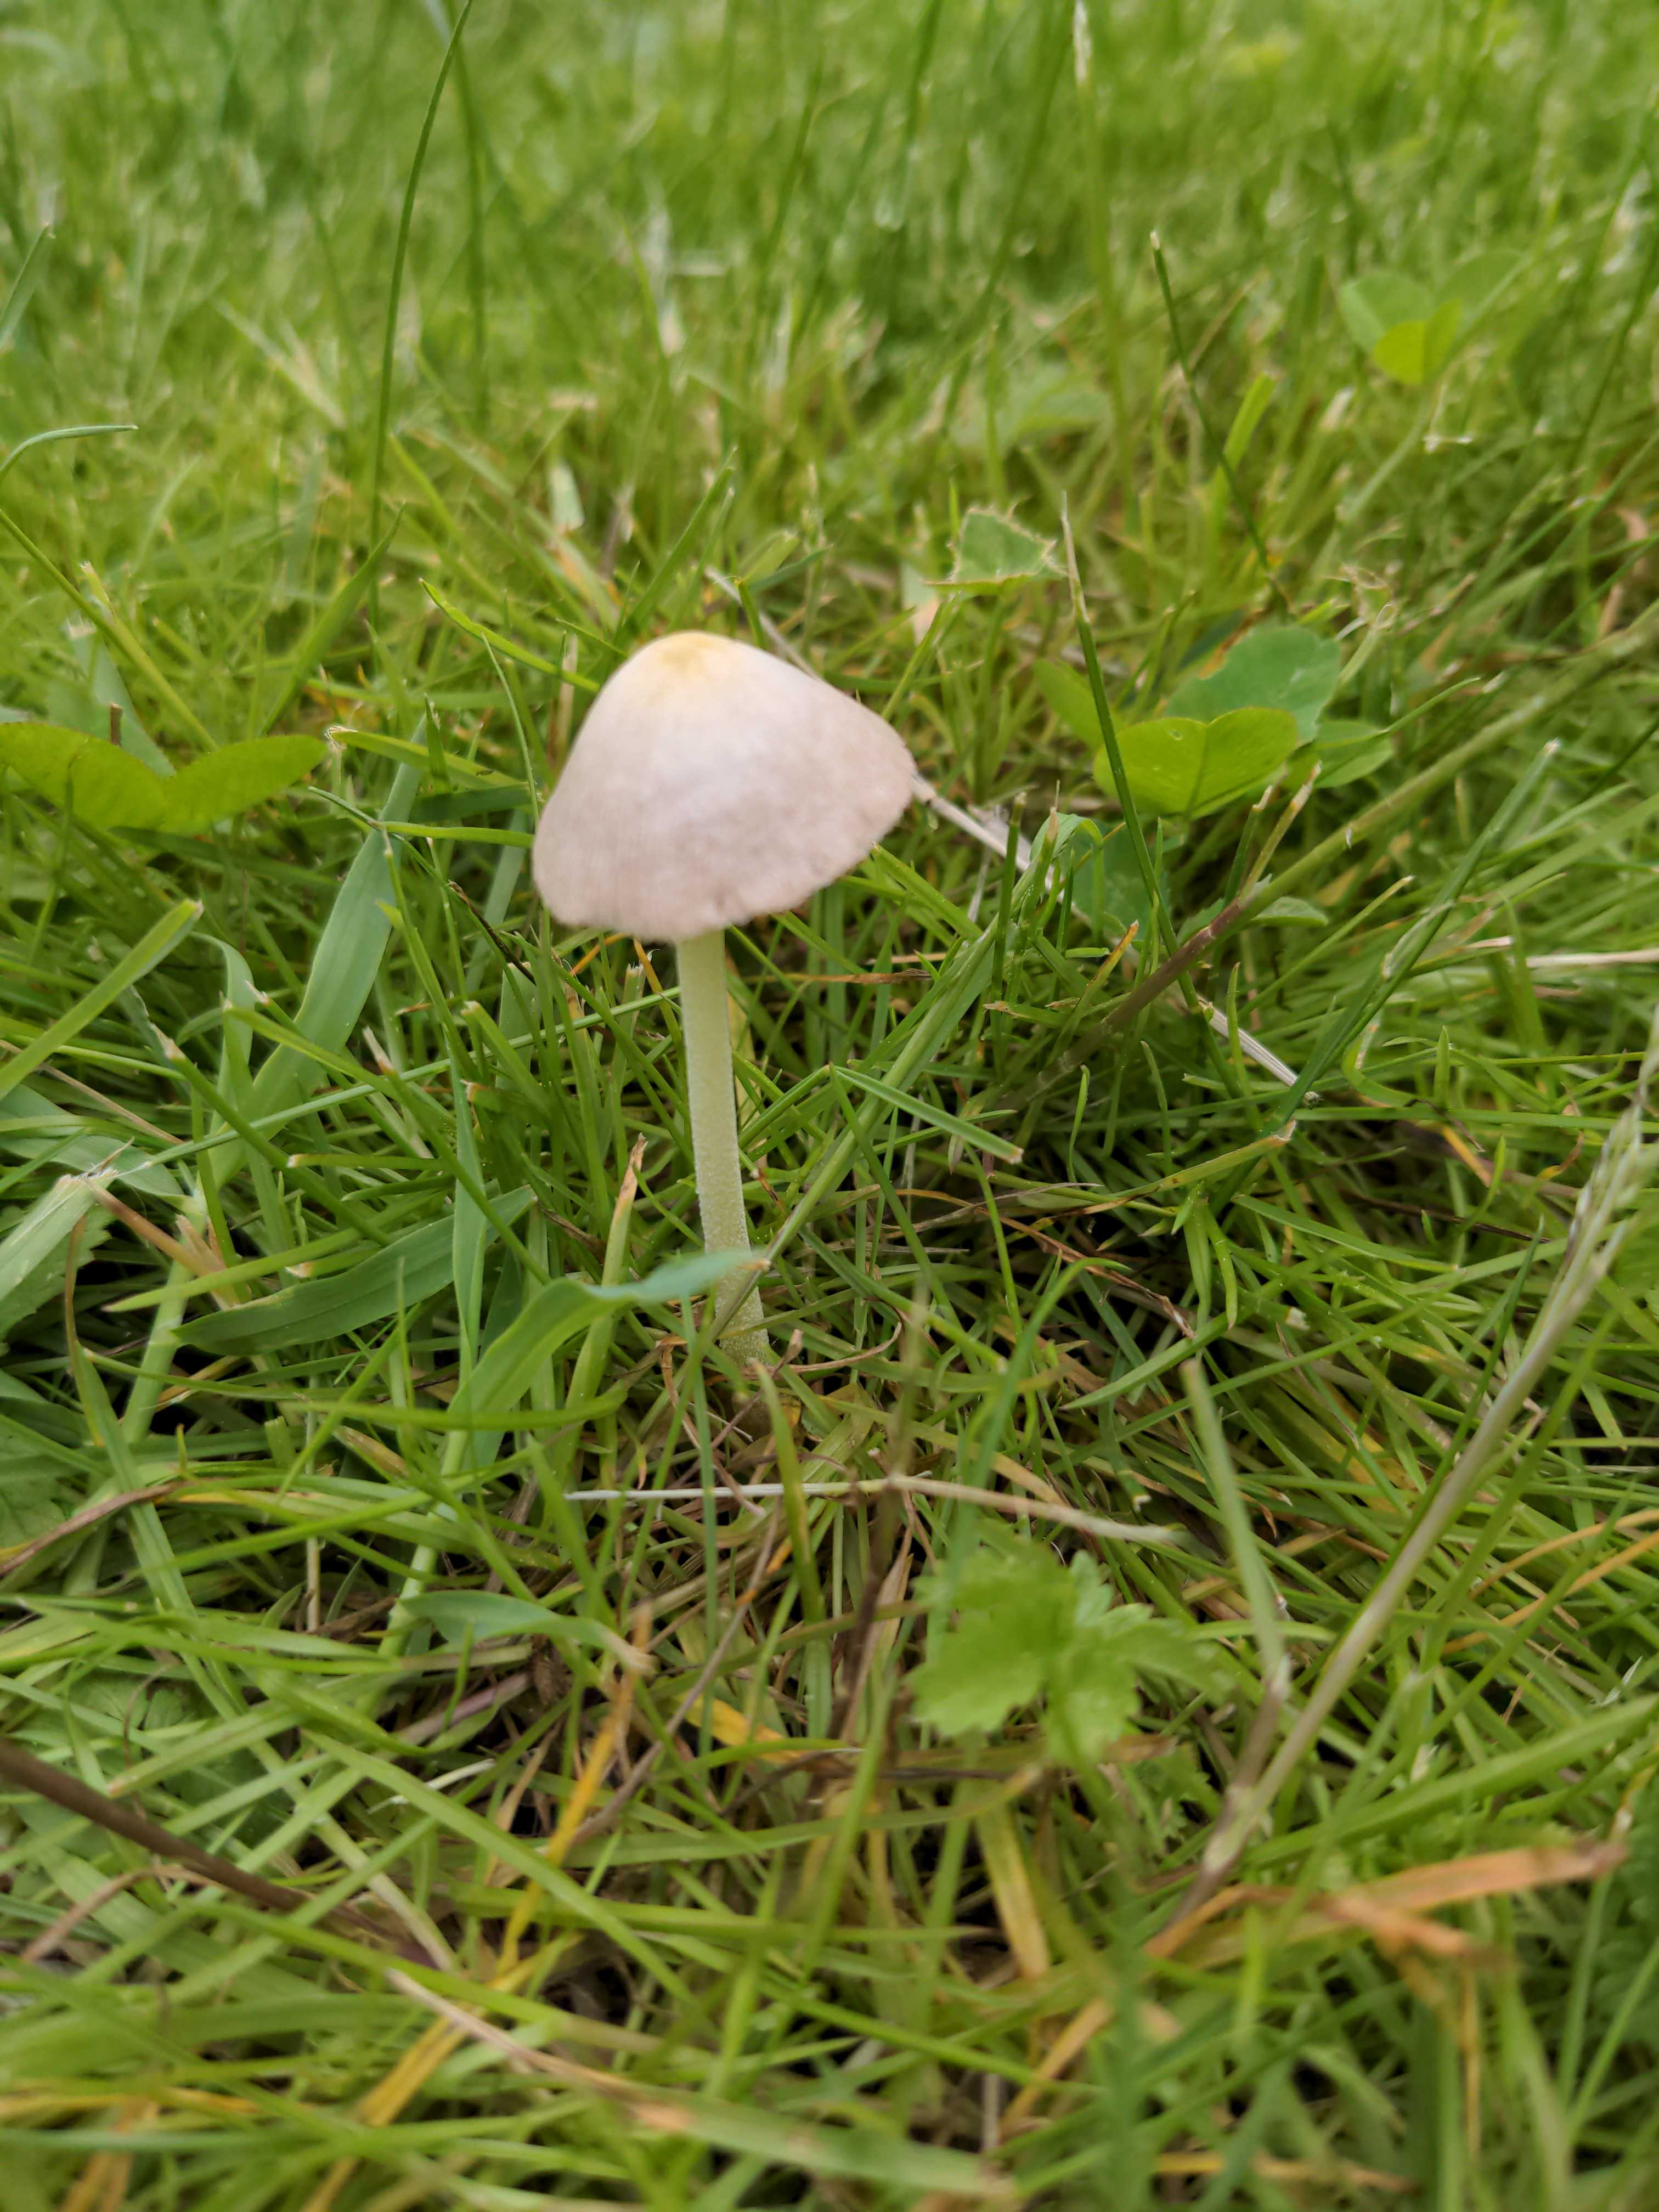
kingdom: Fungi
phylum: Basidiomycota
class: Agaricomycetes
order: Agaricales
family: Bolbitiaceae
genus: Bolbitius
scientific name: Bolbitius titubans
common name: almindelig gulhat
